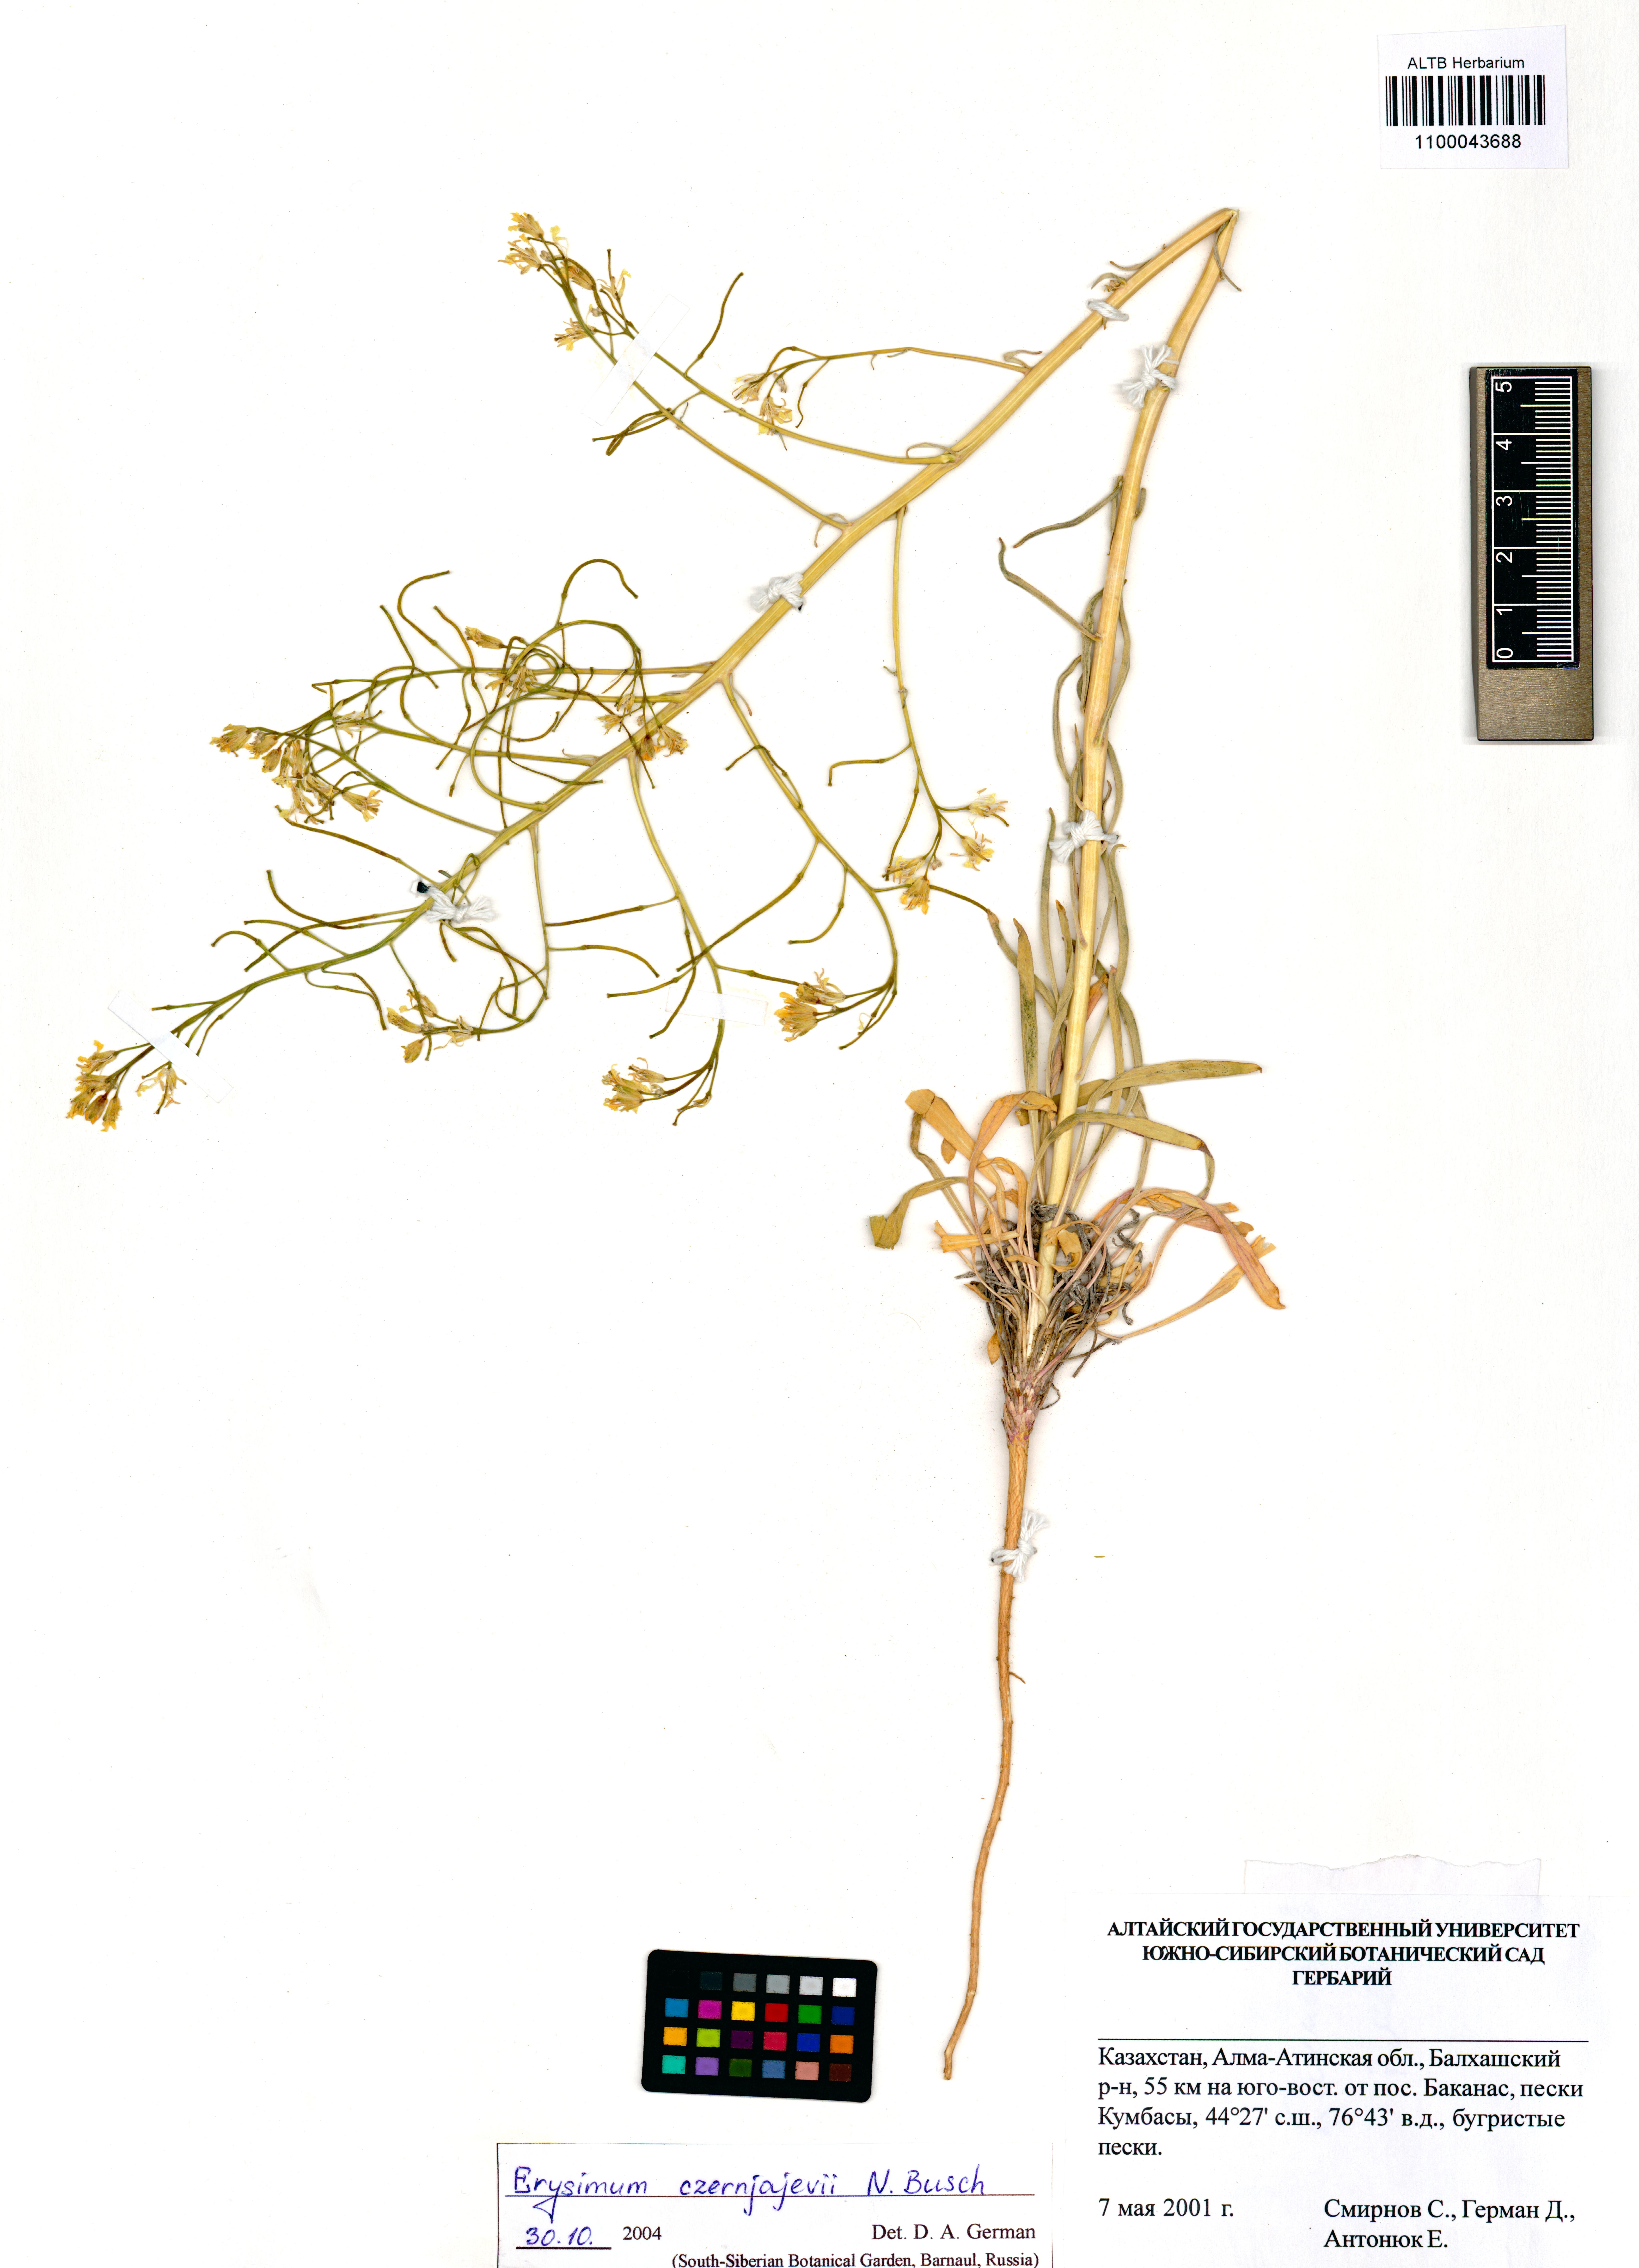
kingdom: Plantae
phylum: Tracheophyta
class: Magnoliopsida
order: Brassicales
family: Brassicaceae
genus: Erysimum
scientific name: Erysimum czernjajevii
